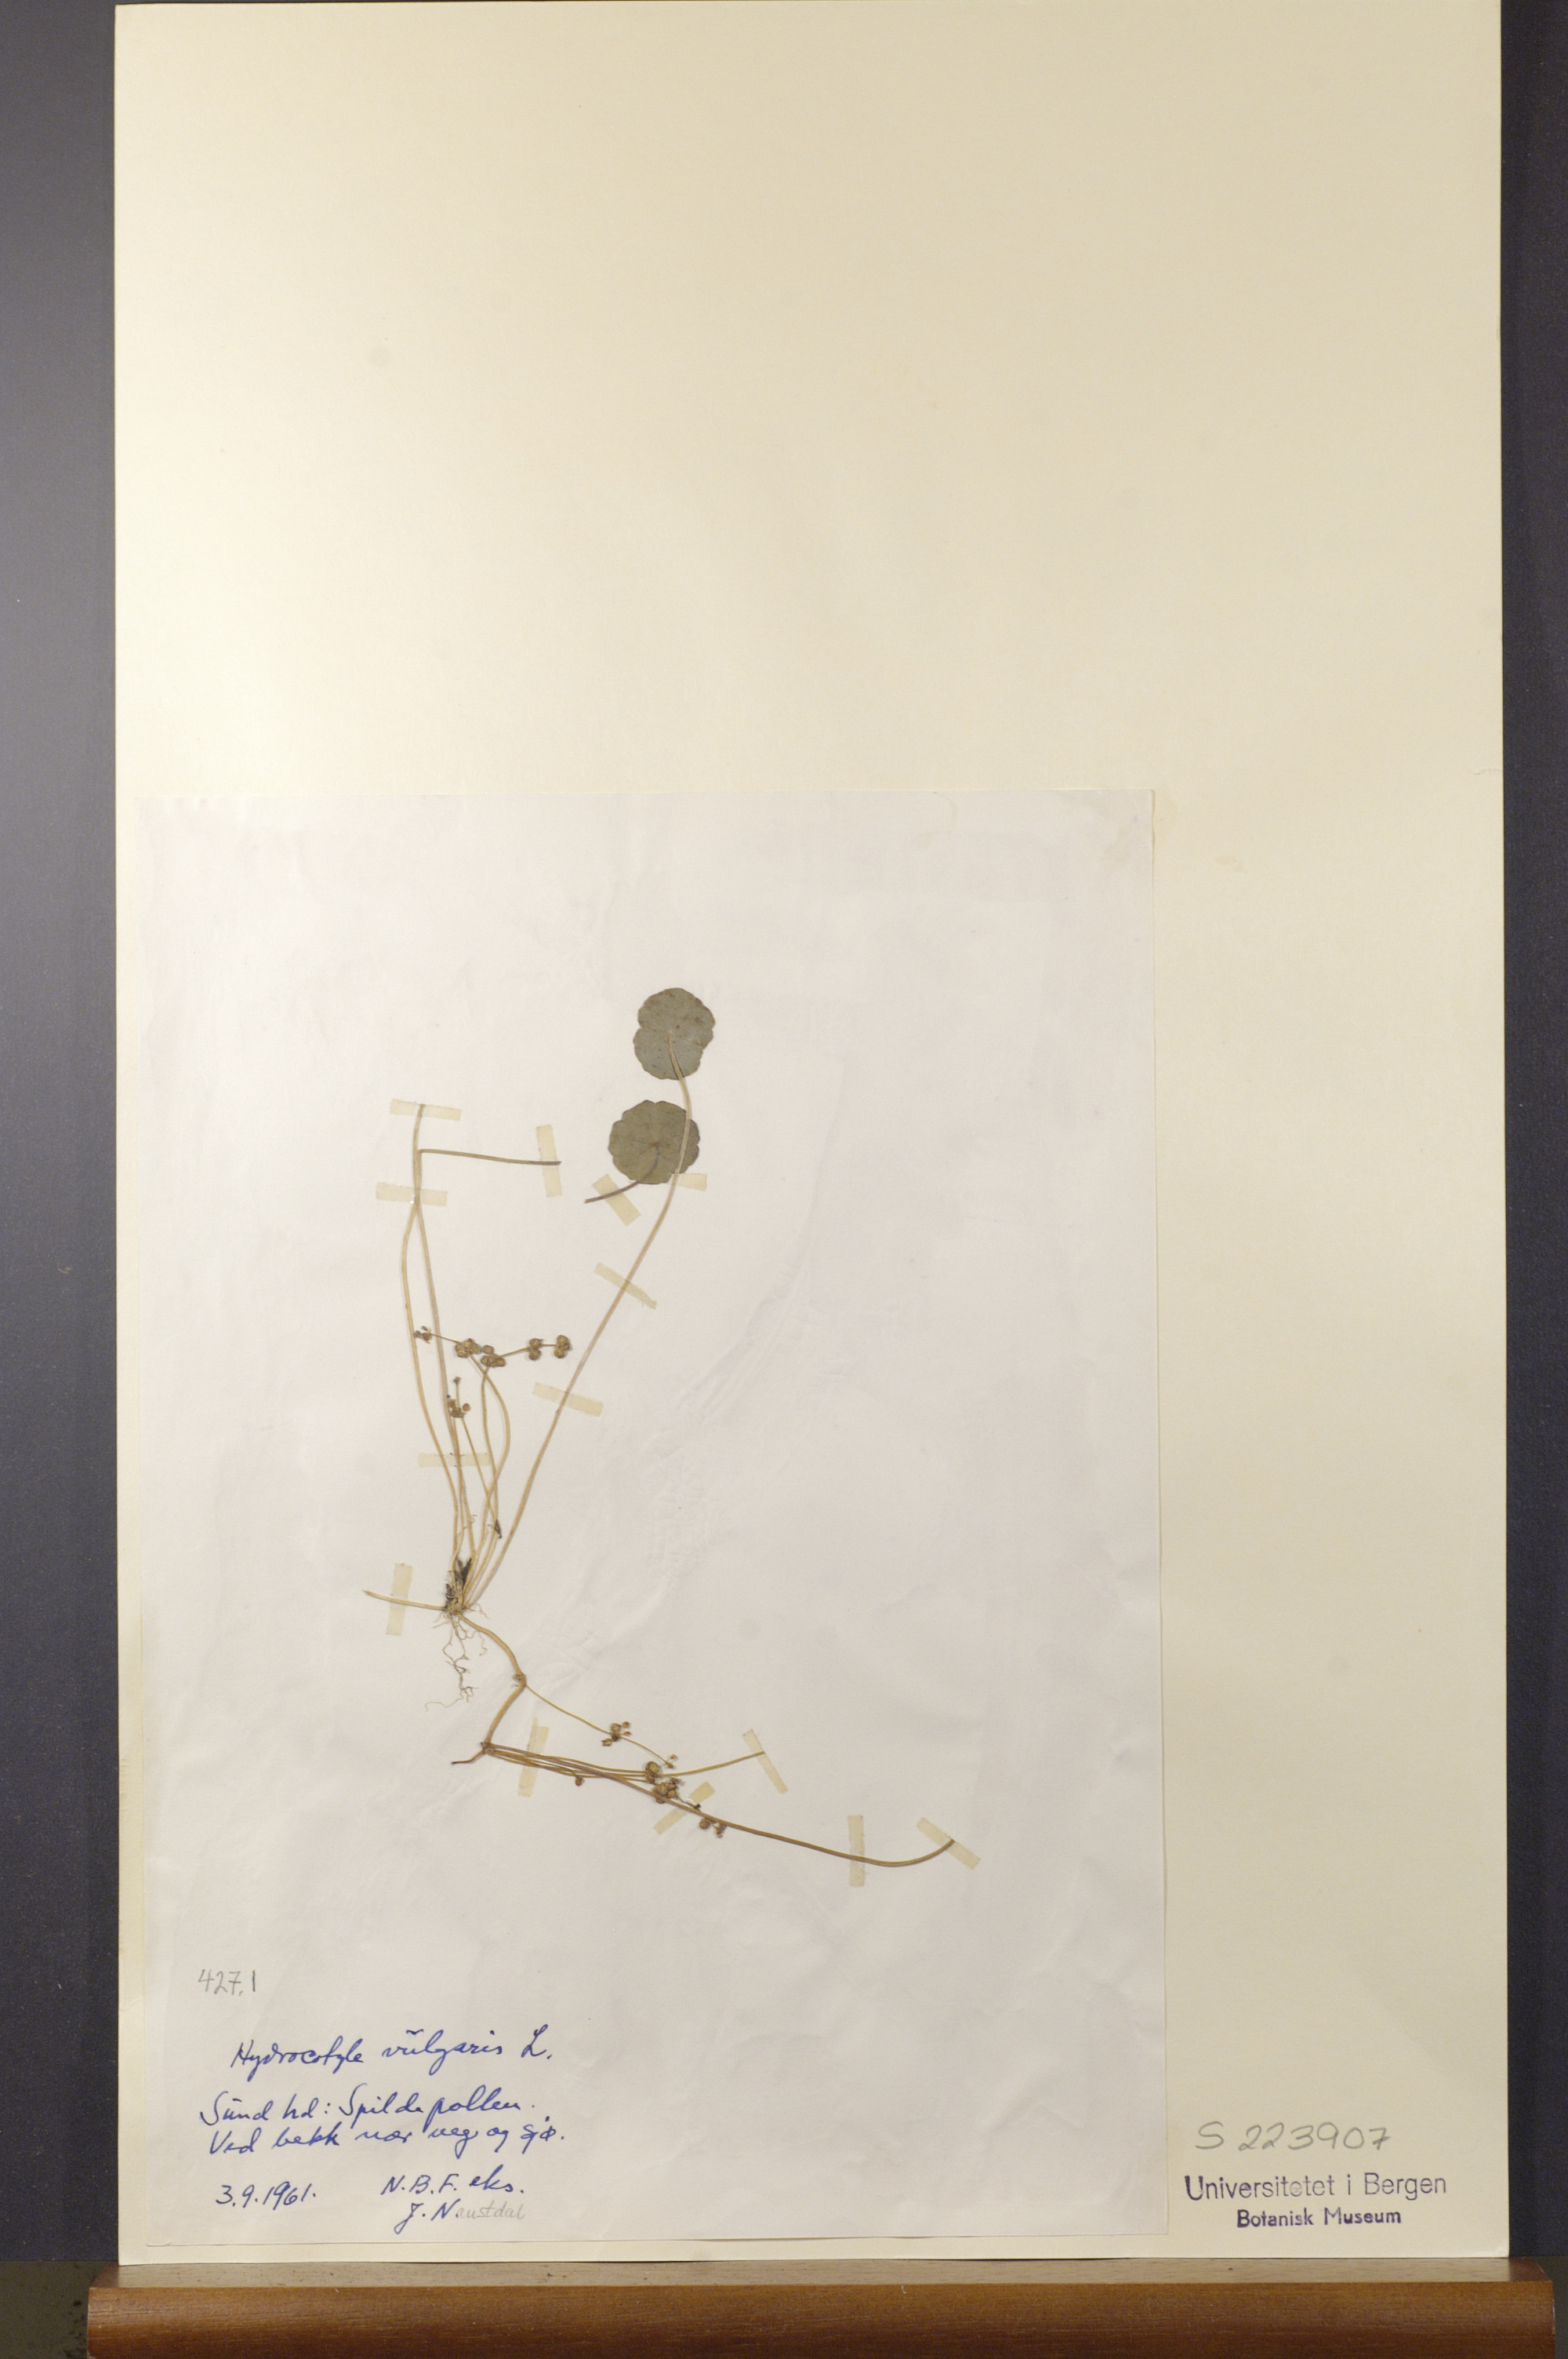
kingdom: Plantae
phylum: Tracheophyta
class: Magnoliopsida
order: Apiales
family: Araliaceae
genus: Hydrocotyle
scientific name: Hydrocotyle vulgaris
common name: Marsh pennywort
